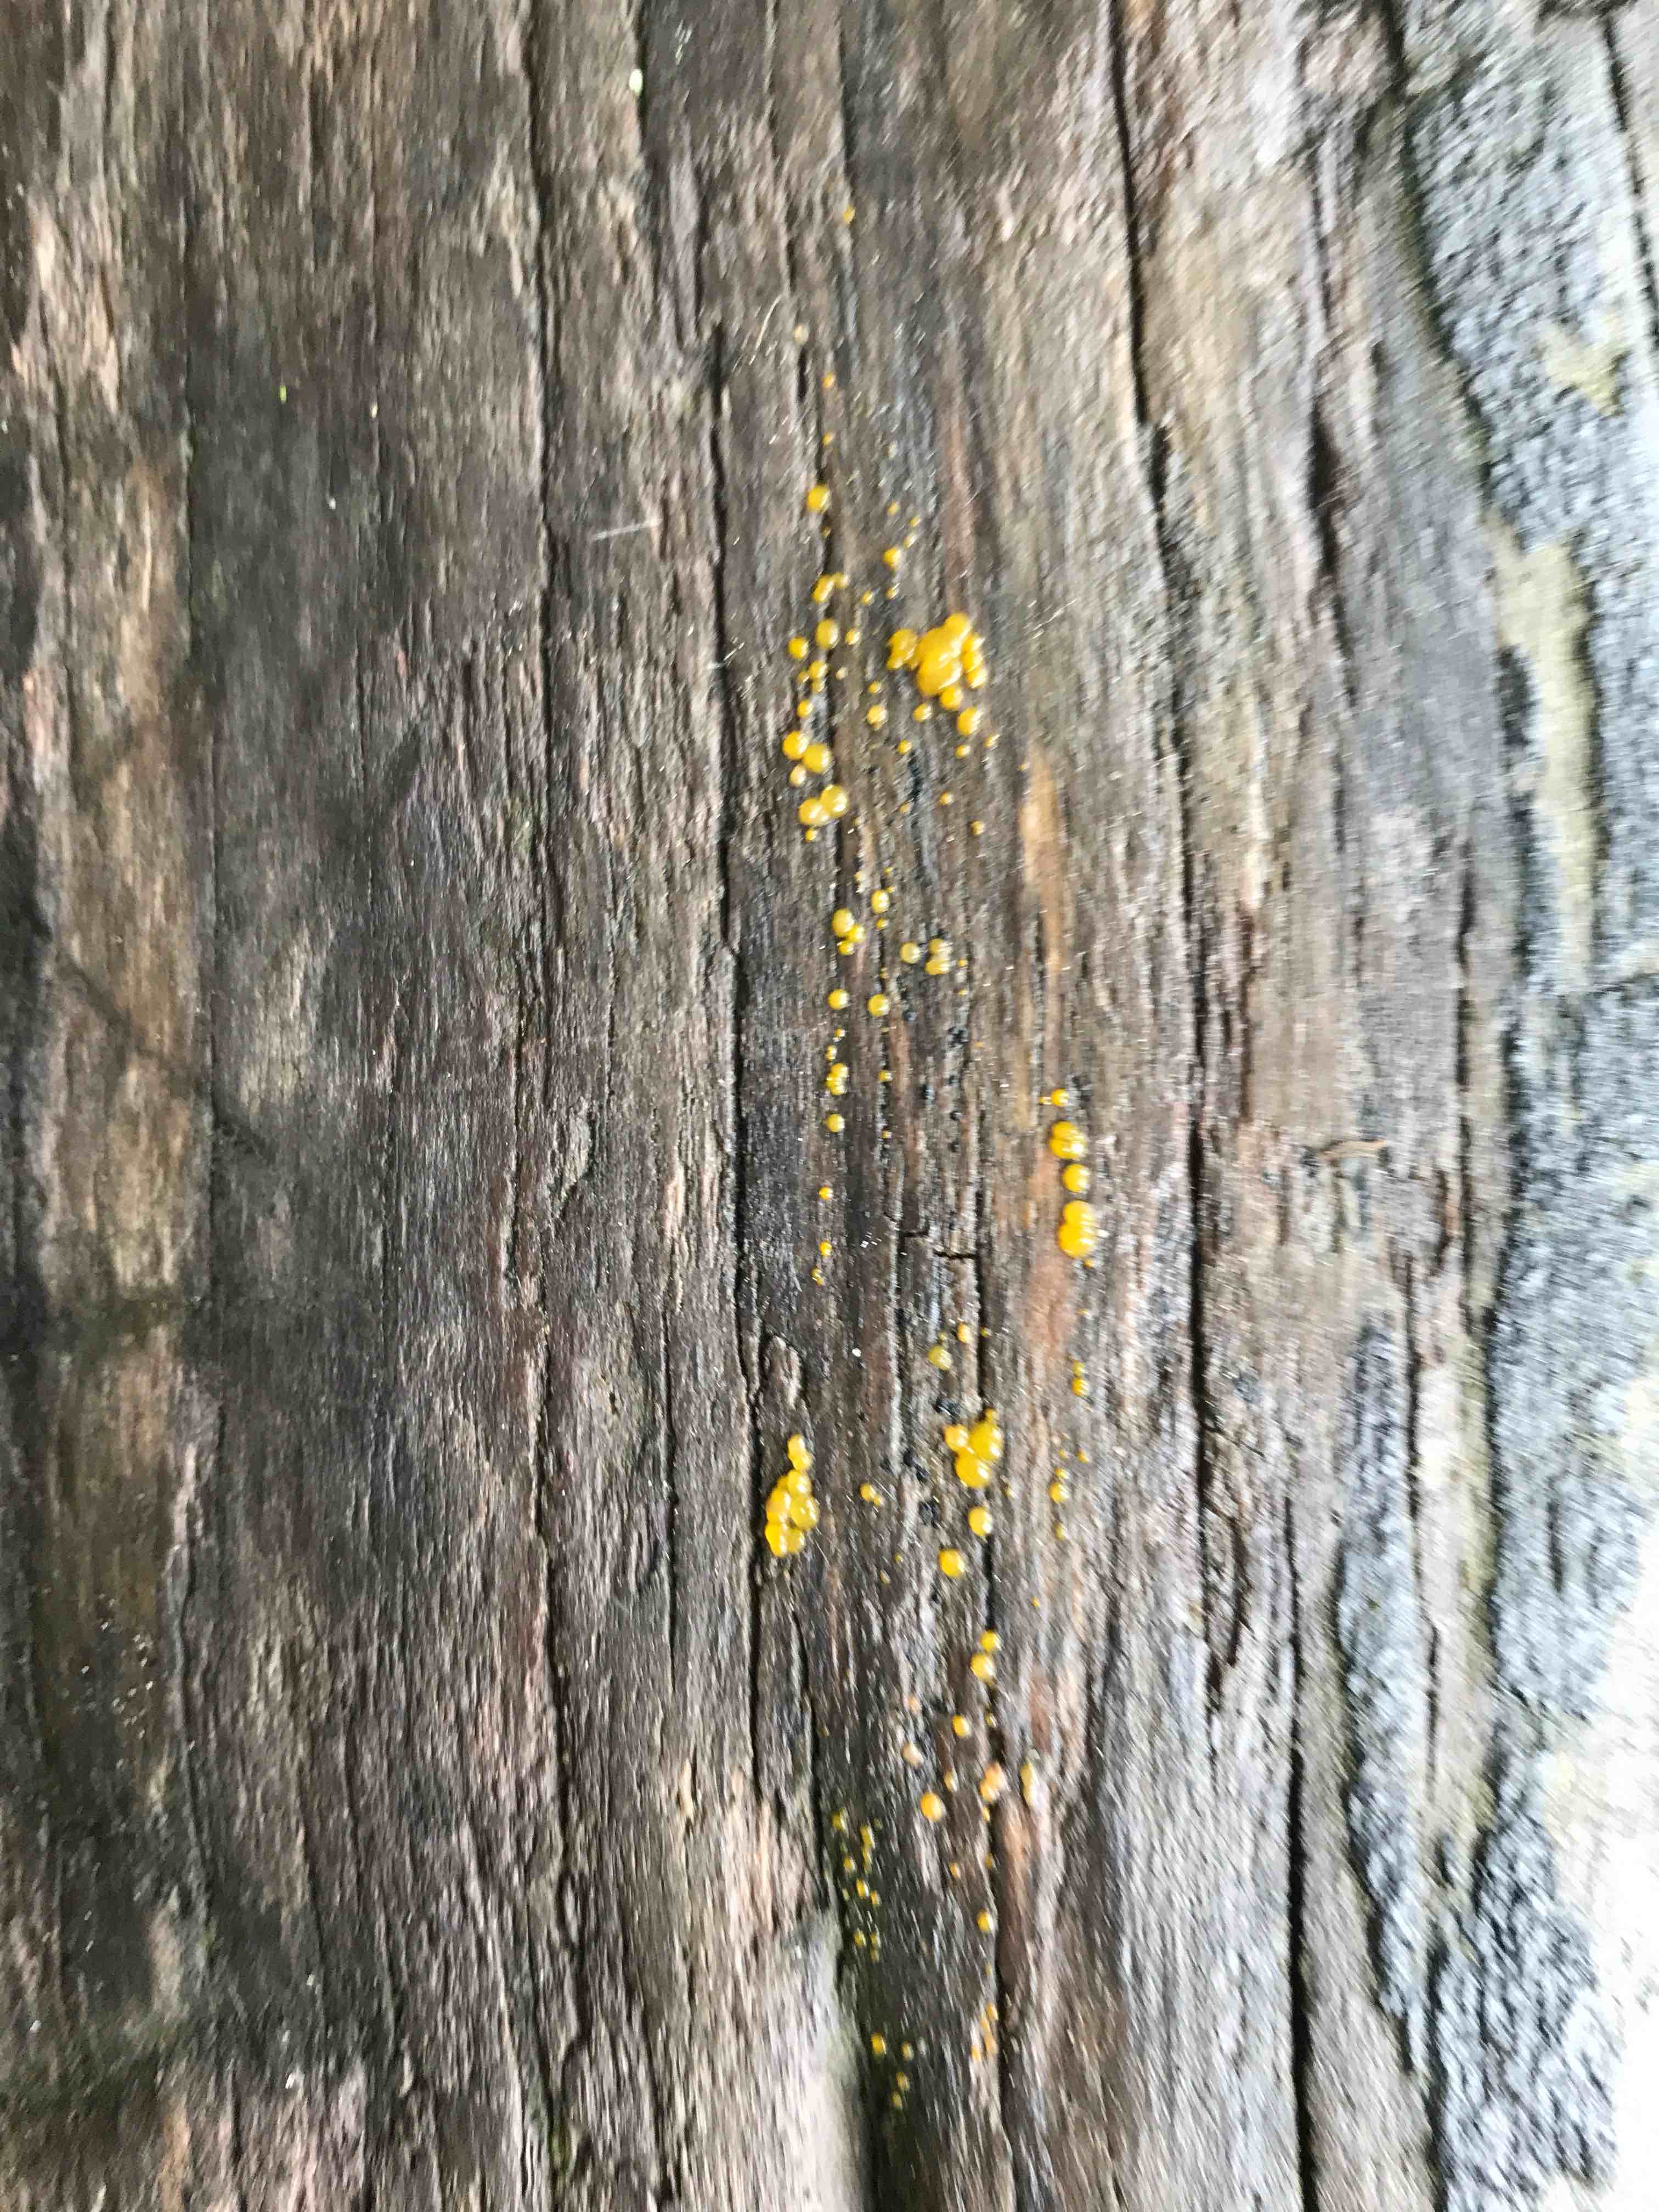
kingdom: Fungi
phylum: Basidiomycota
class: Dacrymycetes
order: Dacrymycetales
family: Dacrymycetaceae
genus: Dacrymyces
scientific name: Dacrymyces
